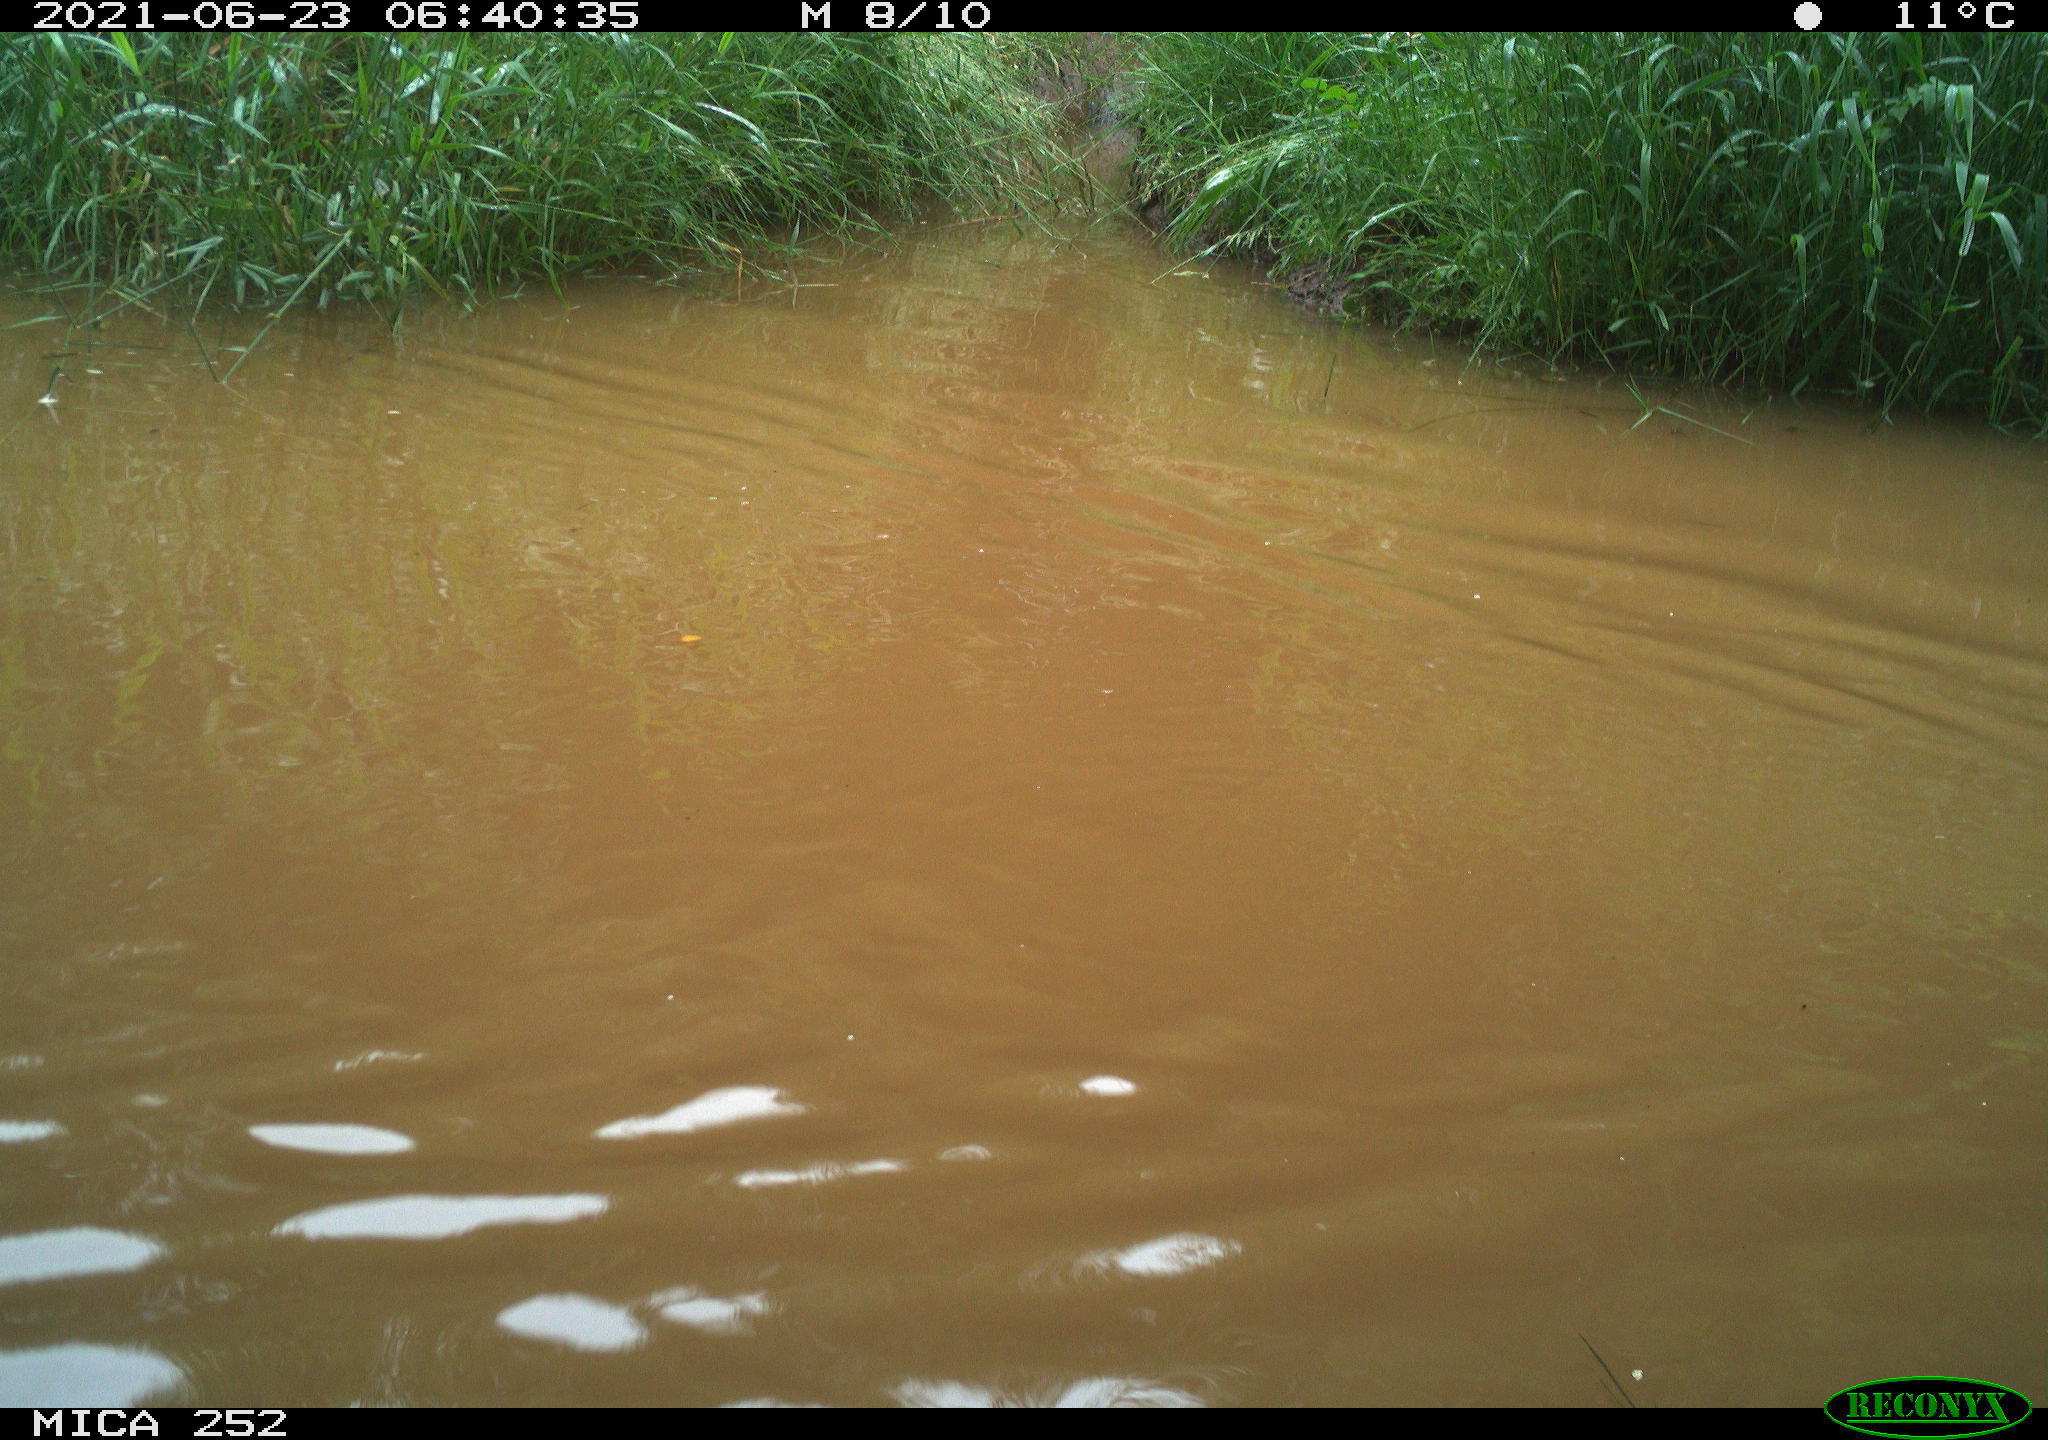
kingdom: Animalia
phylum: Chordata
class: Aves
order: Anseriformes
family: Anatidae
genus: Anas
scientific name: Anas
